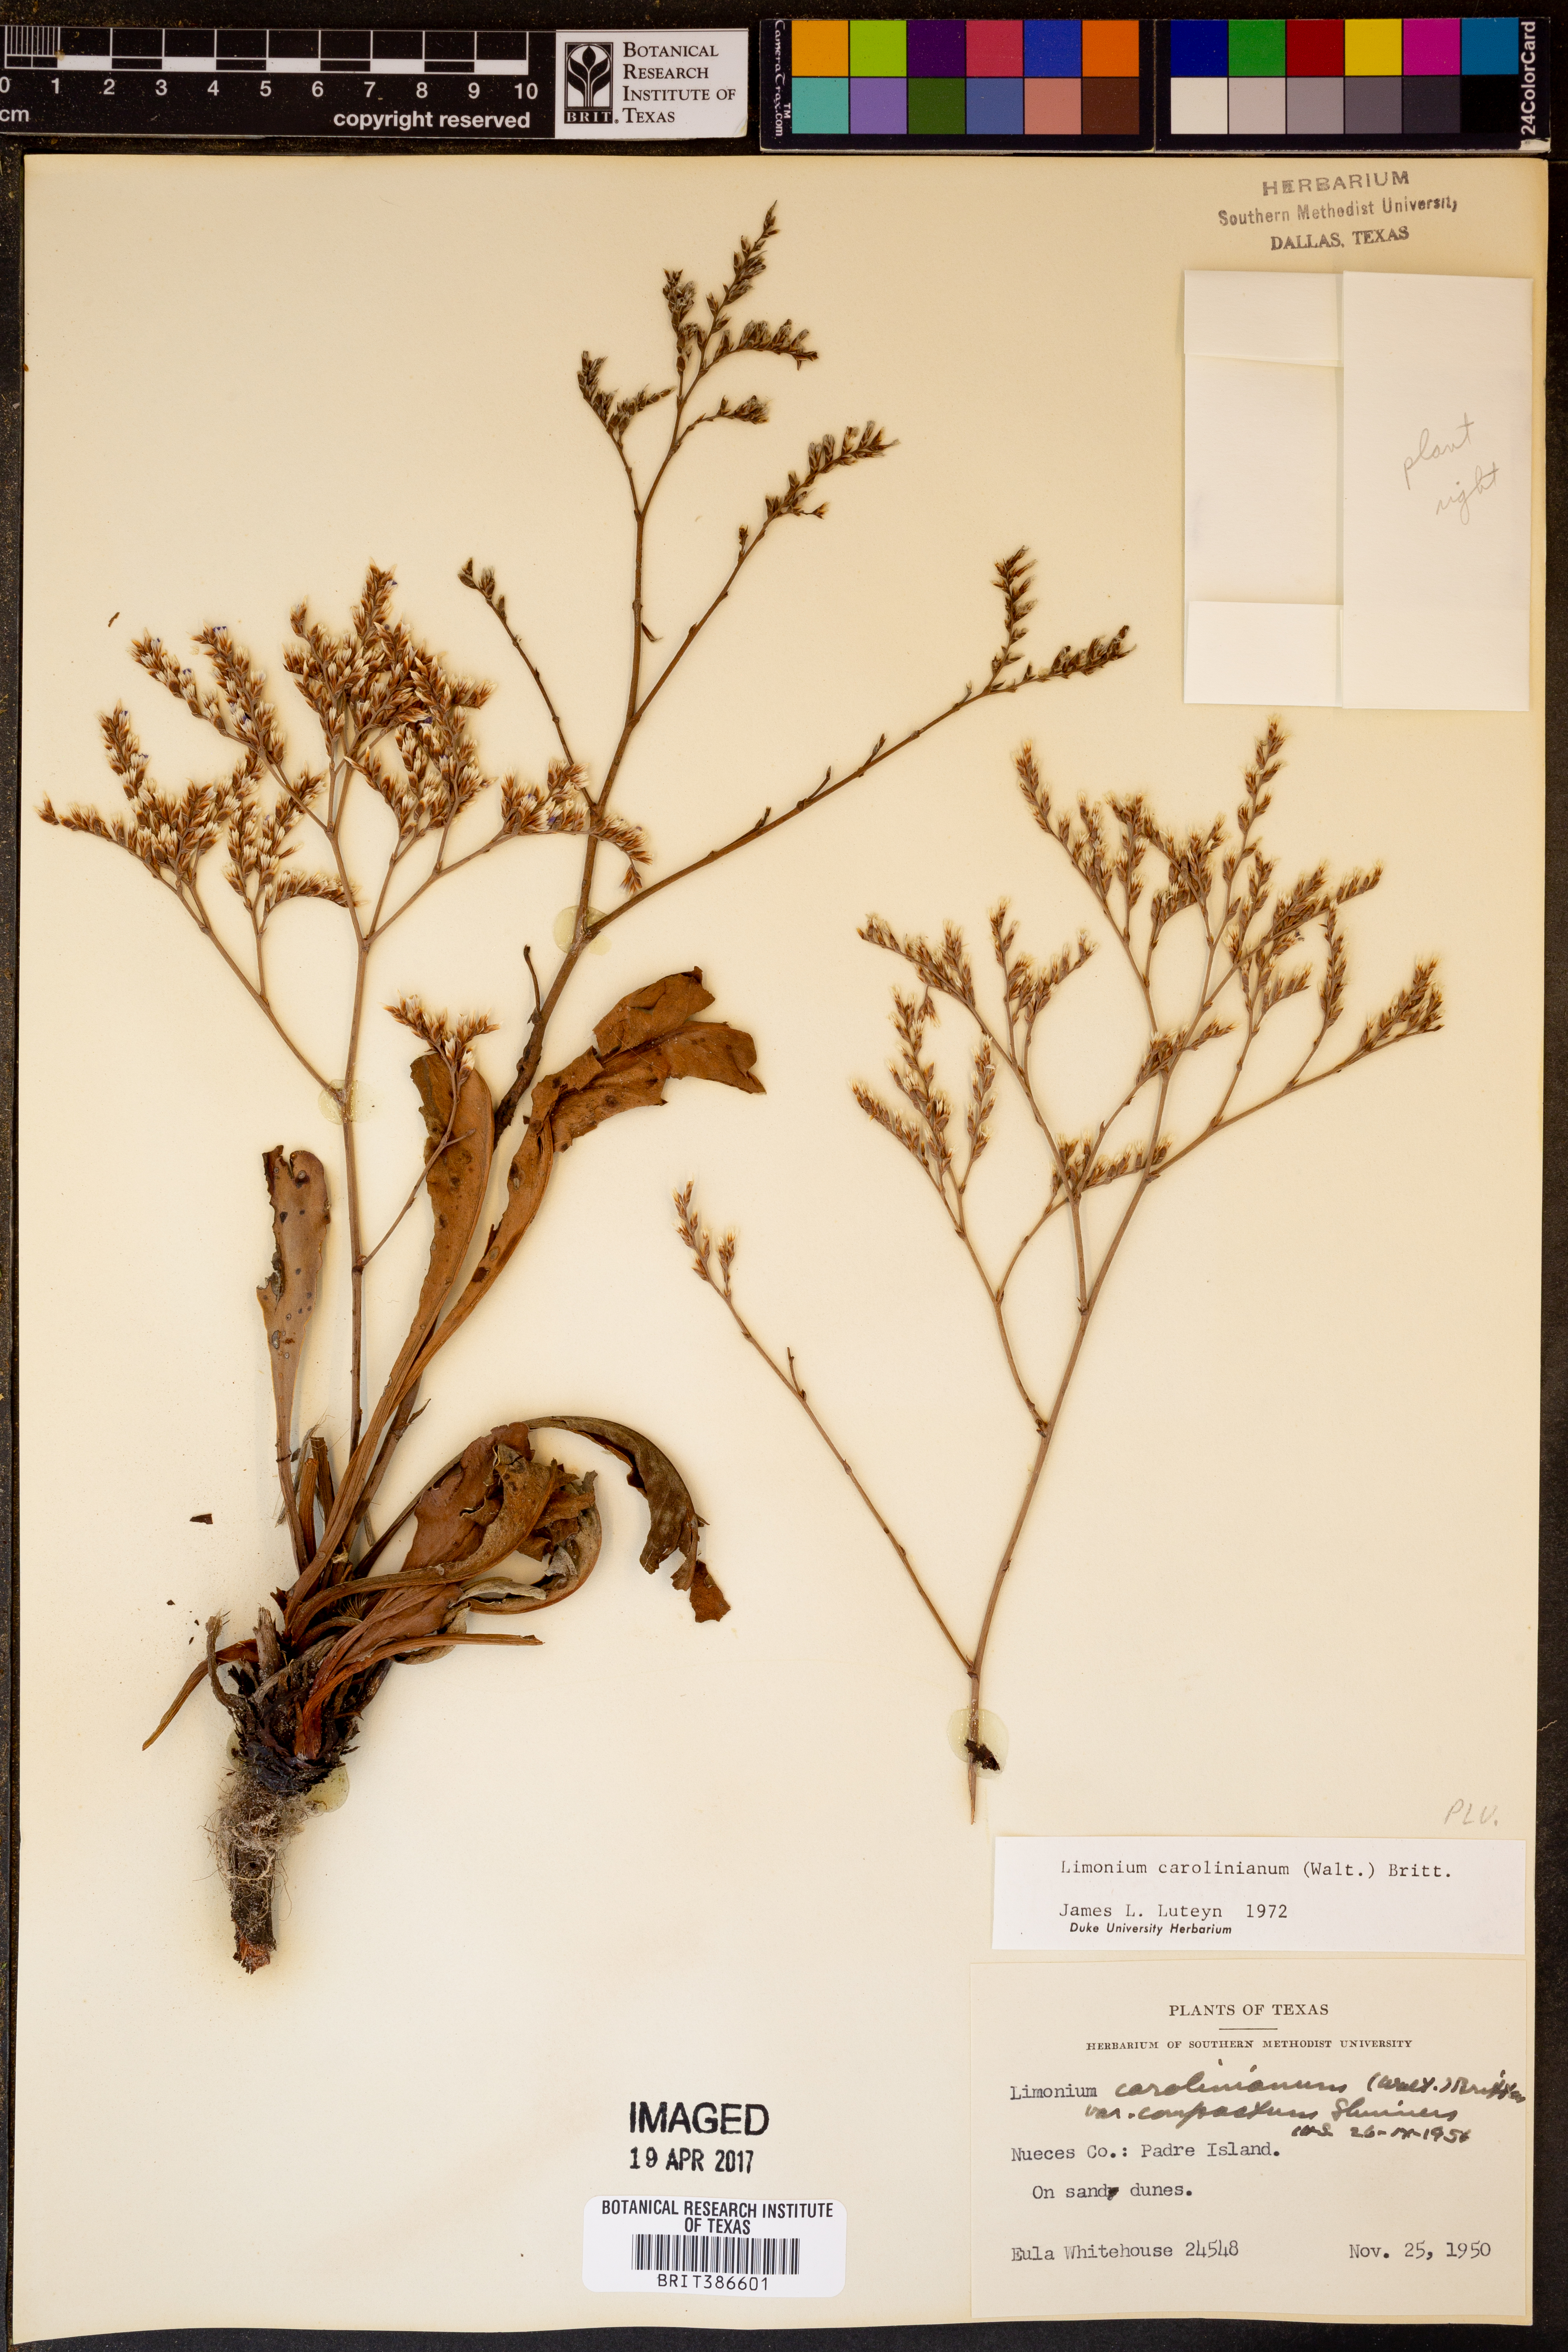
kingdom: Plantae
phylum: Tracheophyta
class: Magnoliopsida
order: Caryophyllales
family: Plumbaginaceae
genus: Limonium
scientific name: Limonium carolinianum
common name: Carolina sea lavender
